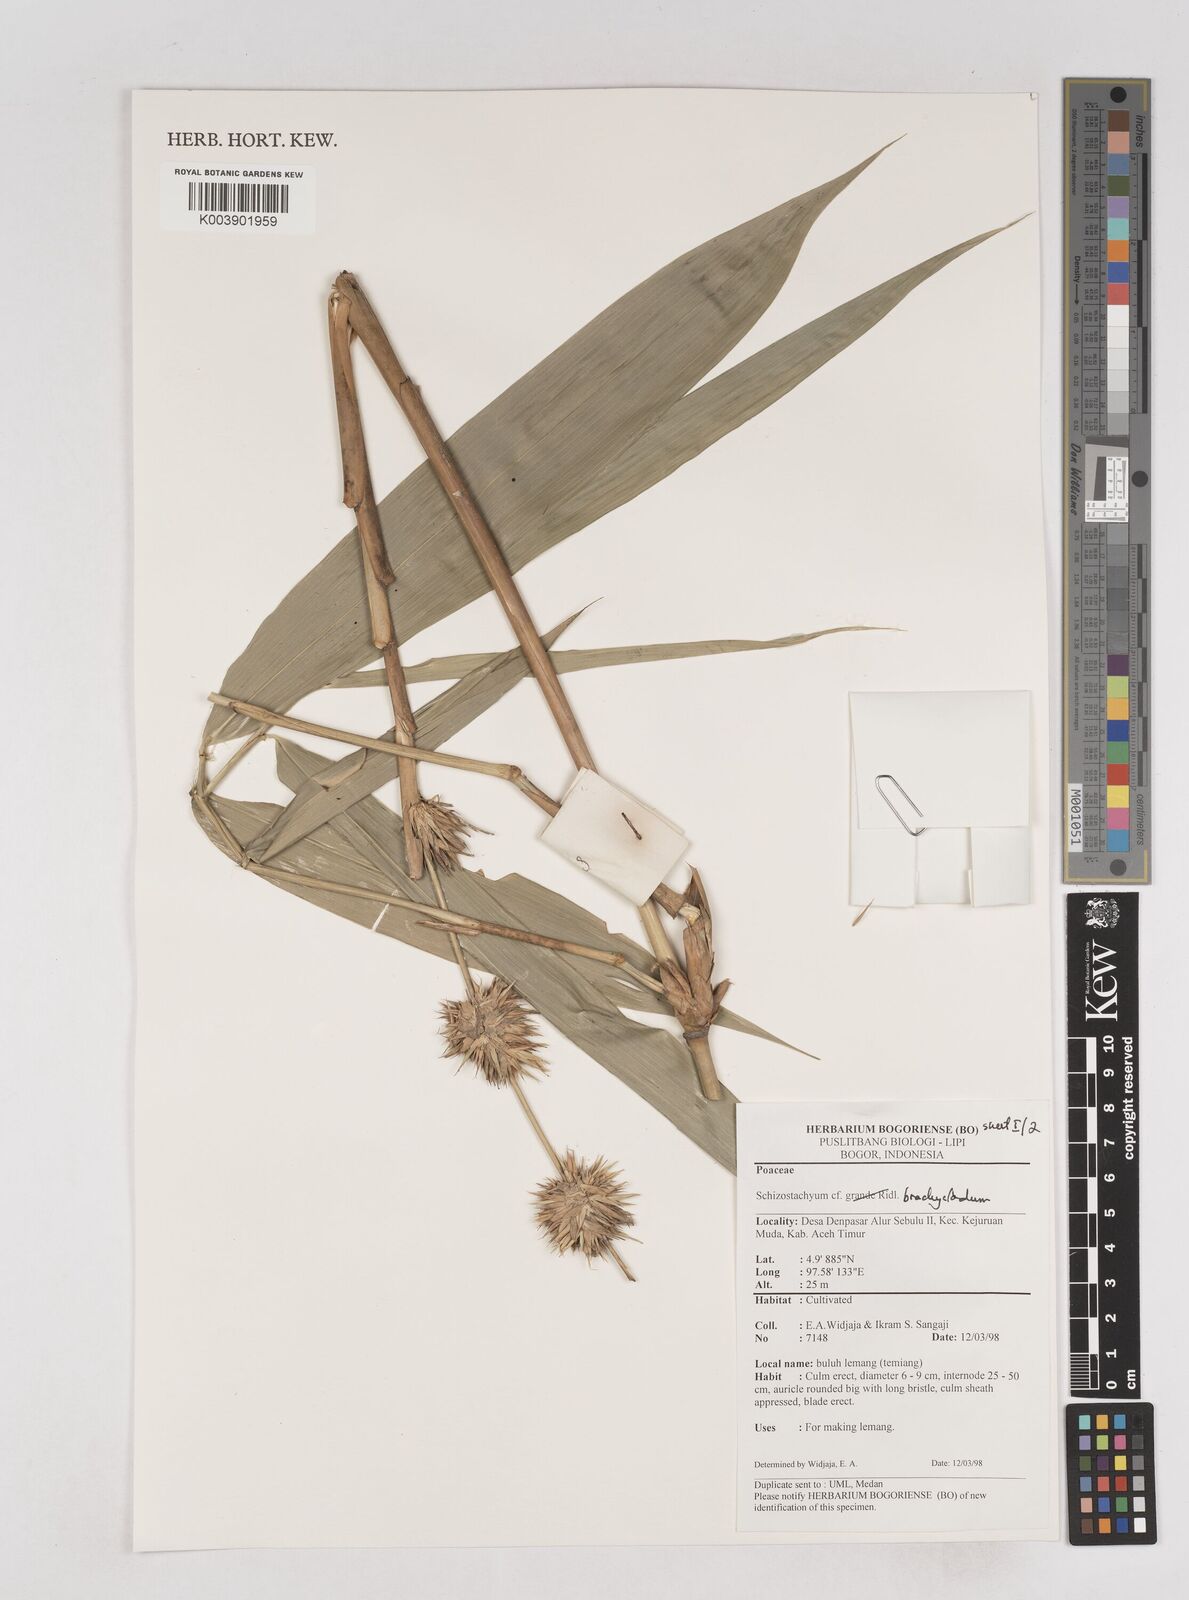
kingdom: Plantae
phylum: Tracheophyta
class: Liliopsida
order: Poales
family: Poaceae
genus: Schizostachyum
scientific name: Schizostachyum brachycladum
